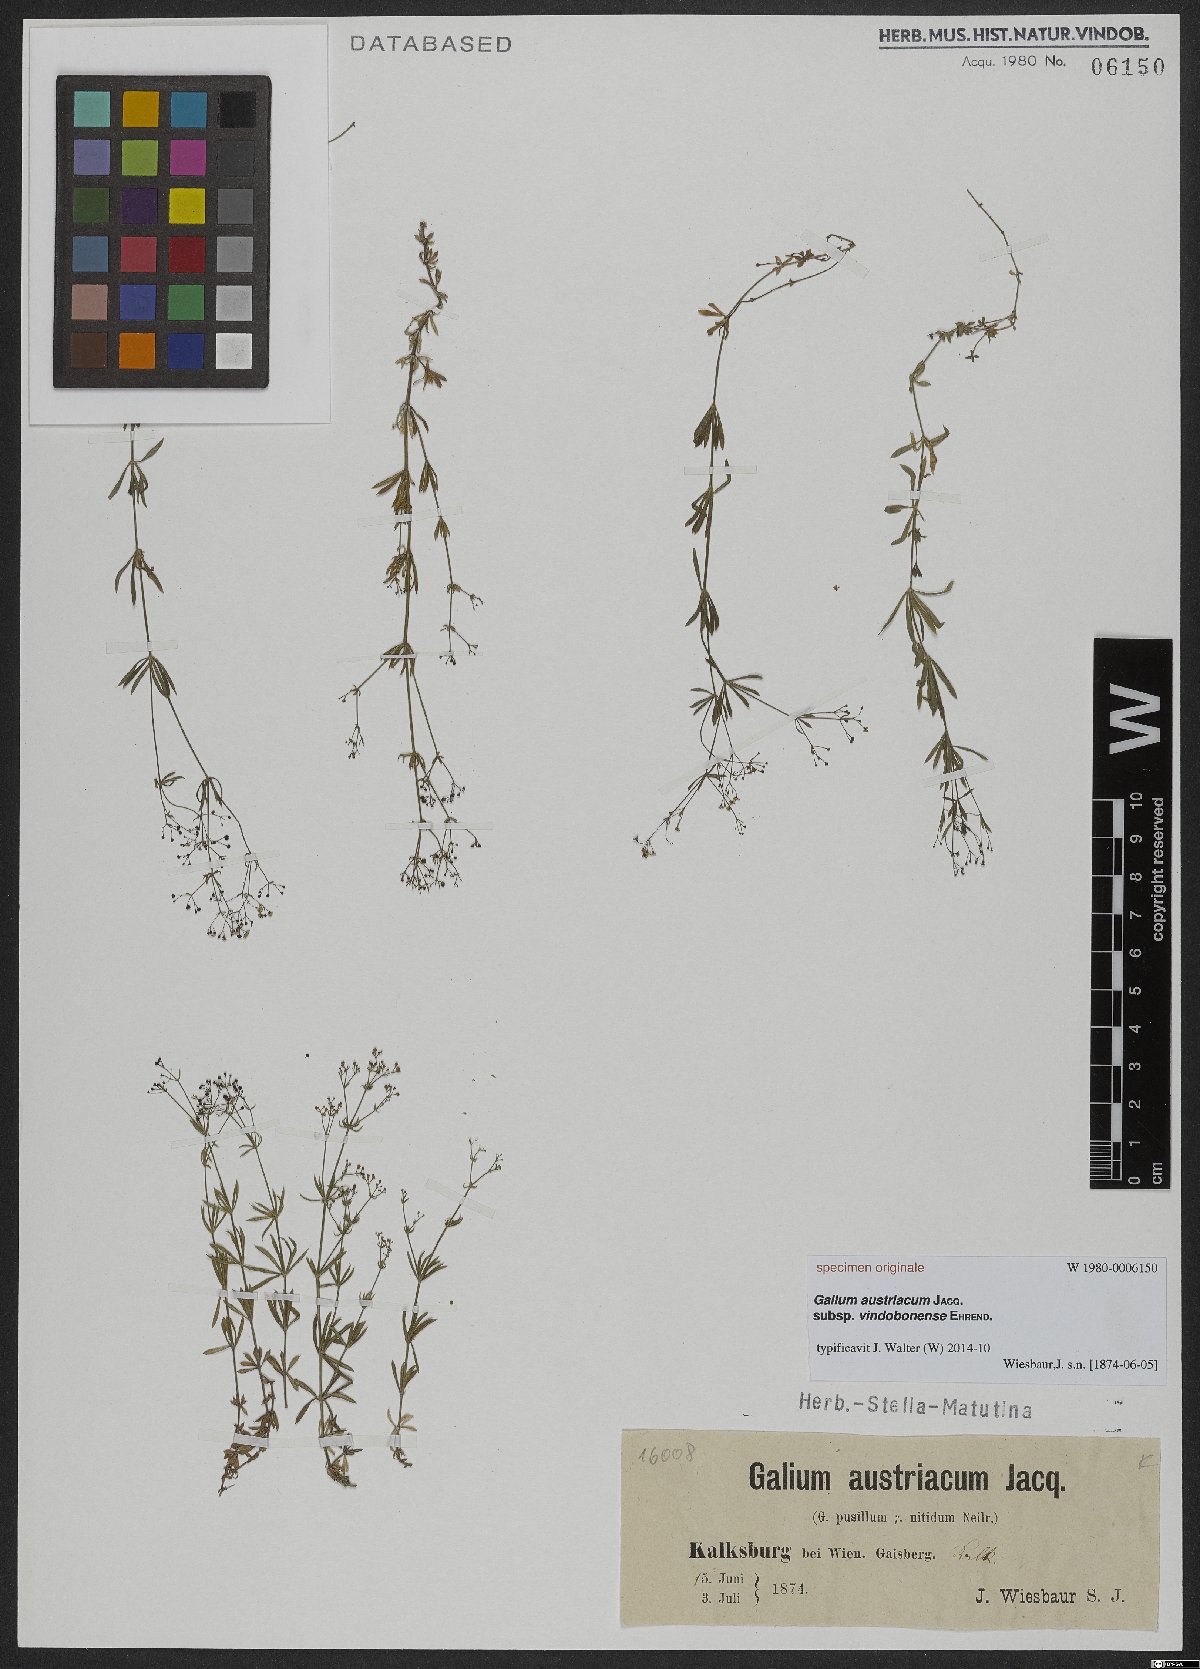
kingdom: Plantae
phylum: Tracheophyta
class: Magnoliopsida
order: Gentianales
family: Rubiaceae
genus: Galium
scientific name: Galium austriacum
